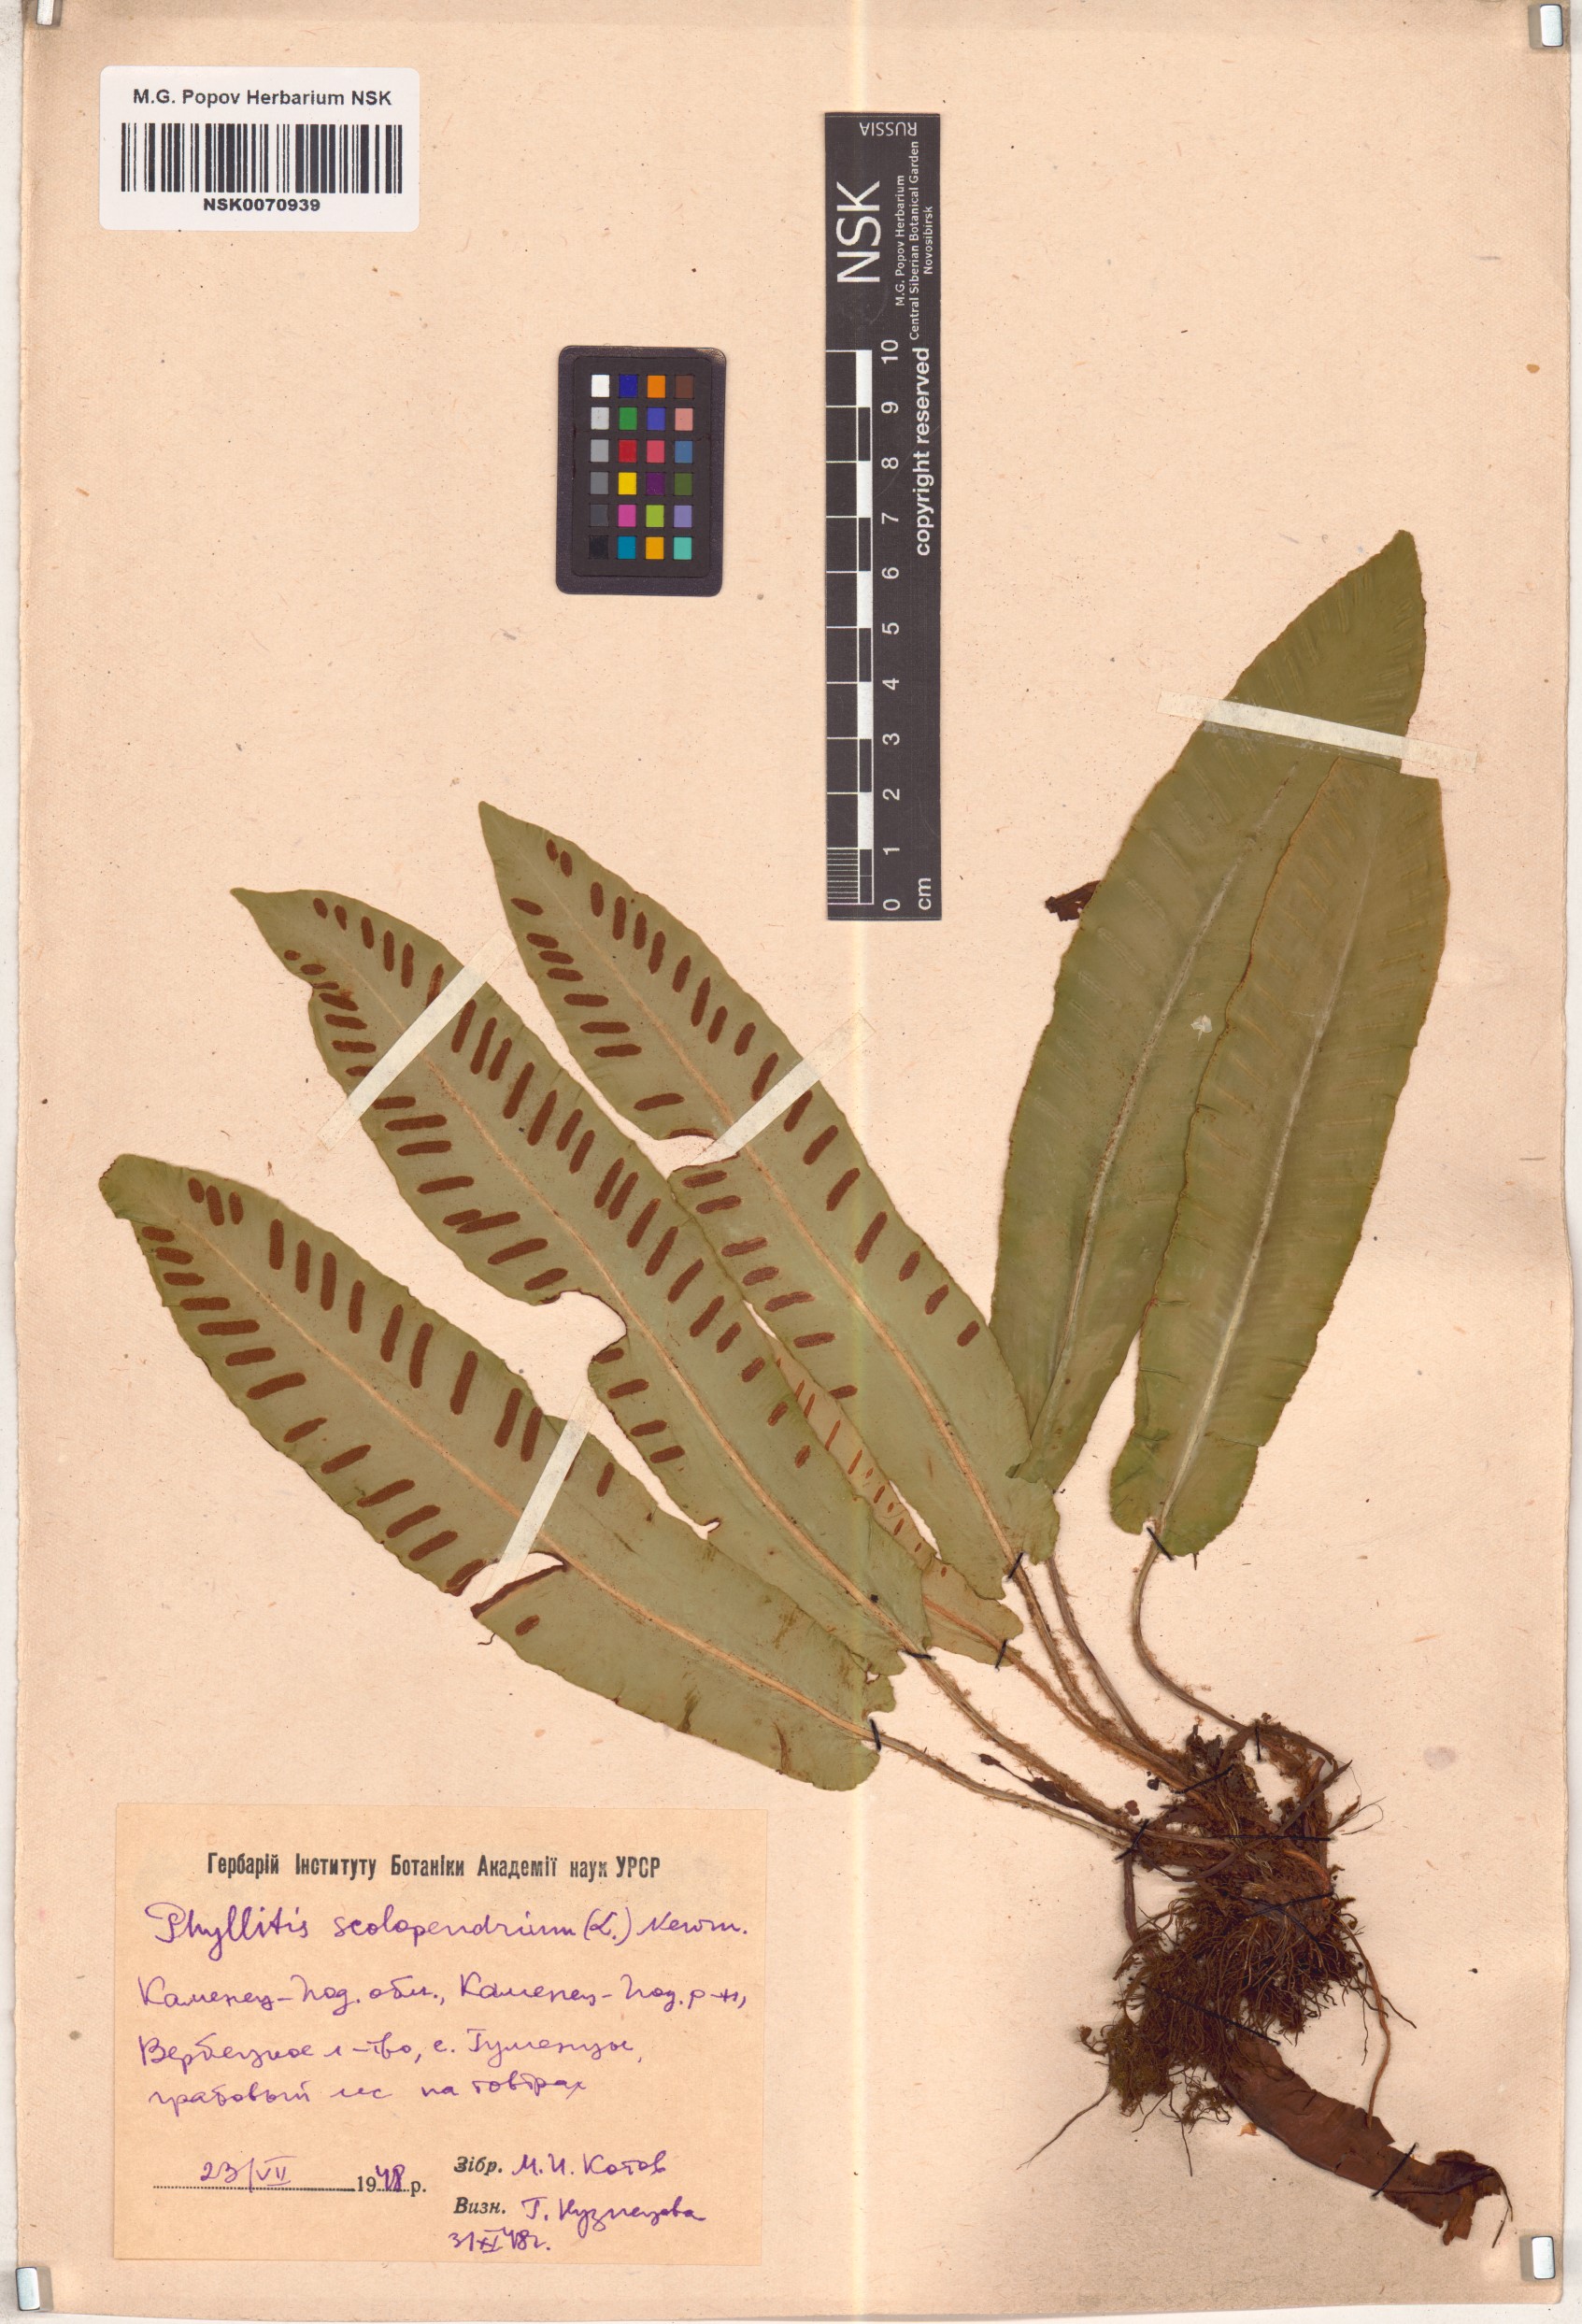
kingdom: Plantae
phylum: Tracheophyta
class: Polypodiopsida
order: Polypodiales
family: Aspleniaceae
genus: Asplenium
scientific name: Asplenium scolopendrium
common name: Hart's-tongue fern
